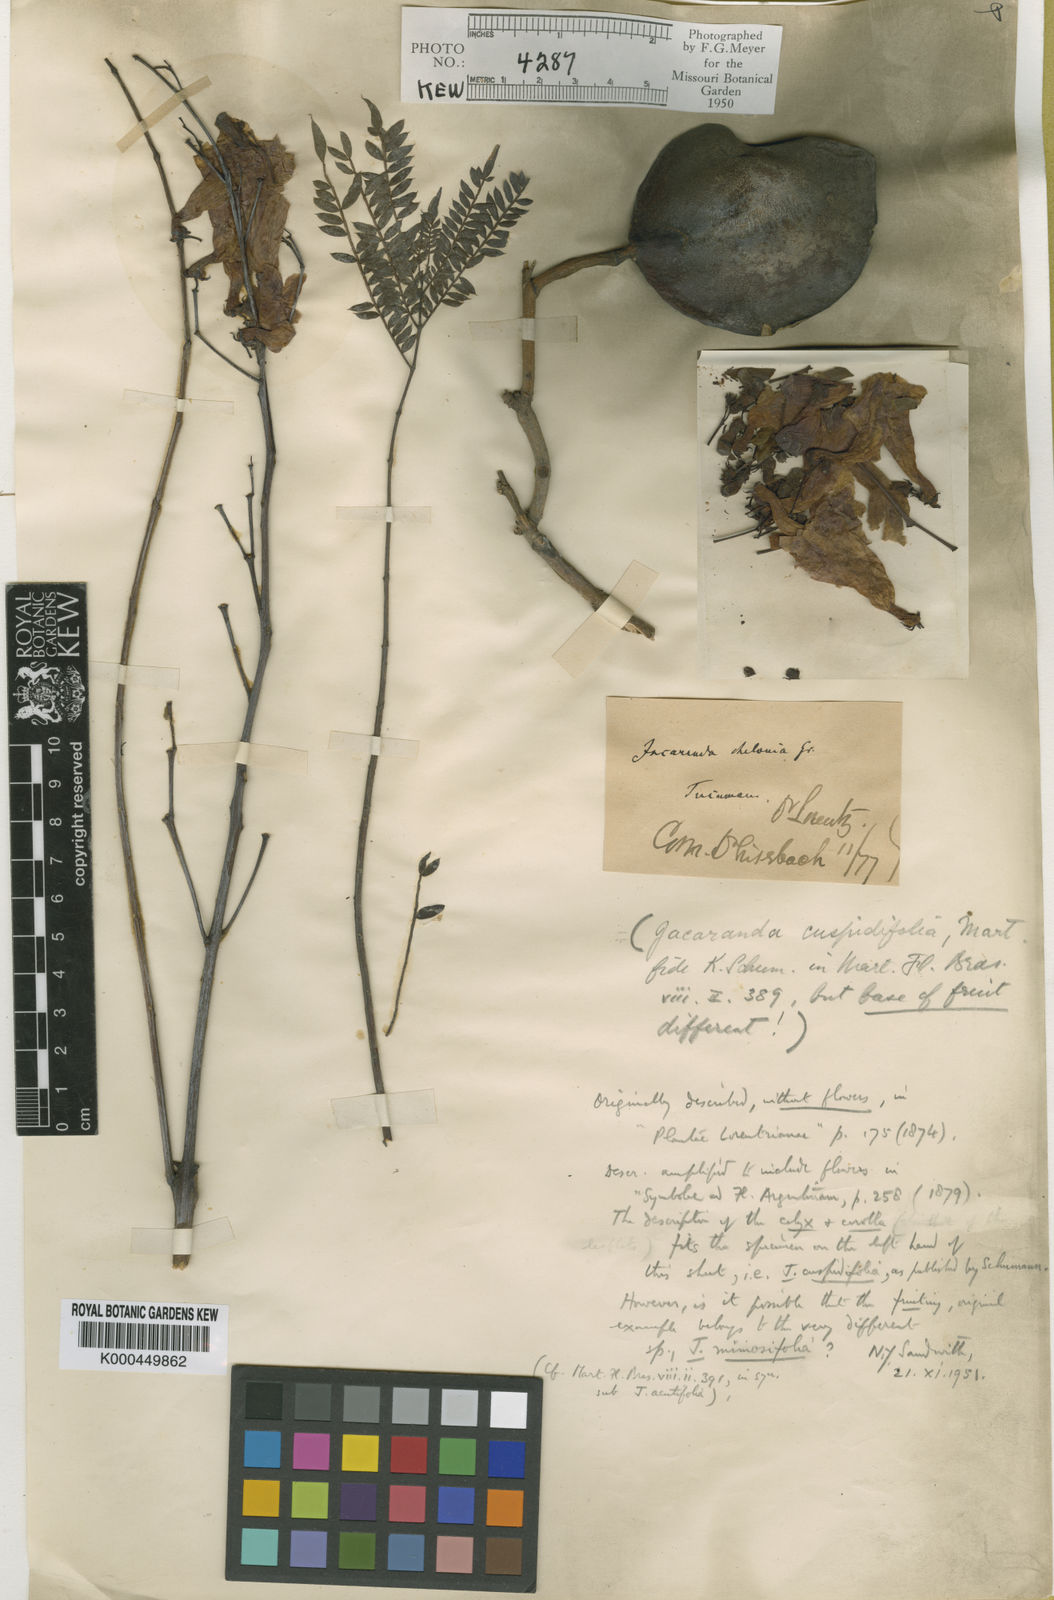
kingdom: Plantae
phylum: Tracheophyta
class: Magnoliopsida
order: Lamiales
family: Bignoniaceae
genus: Jacaranda
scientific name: Jacaranda mimosifolia
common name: Black poui
